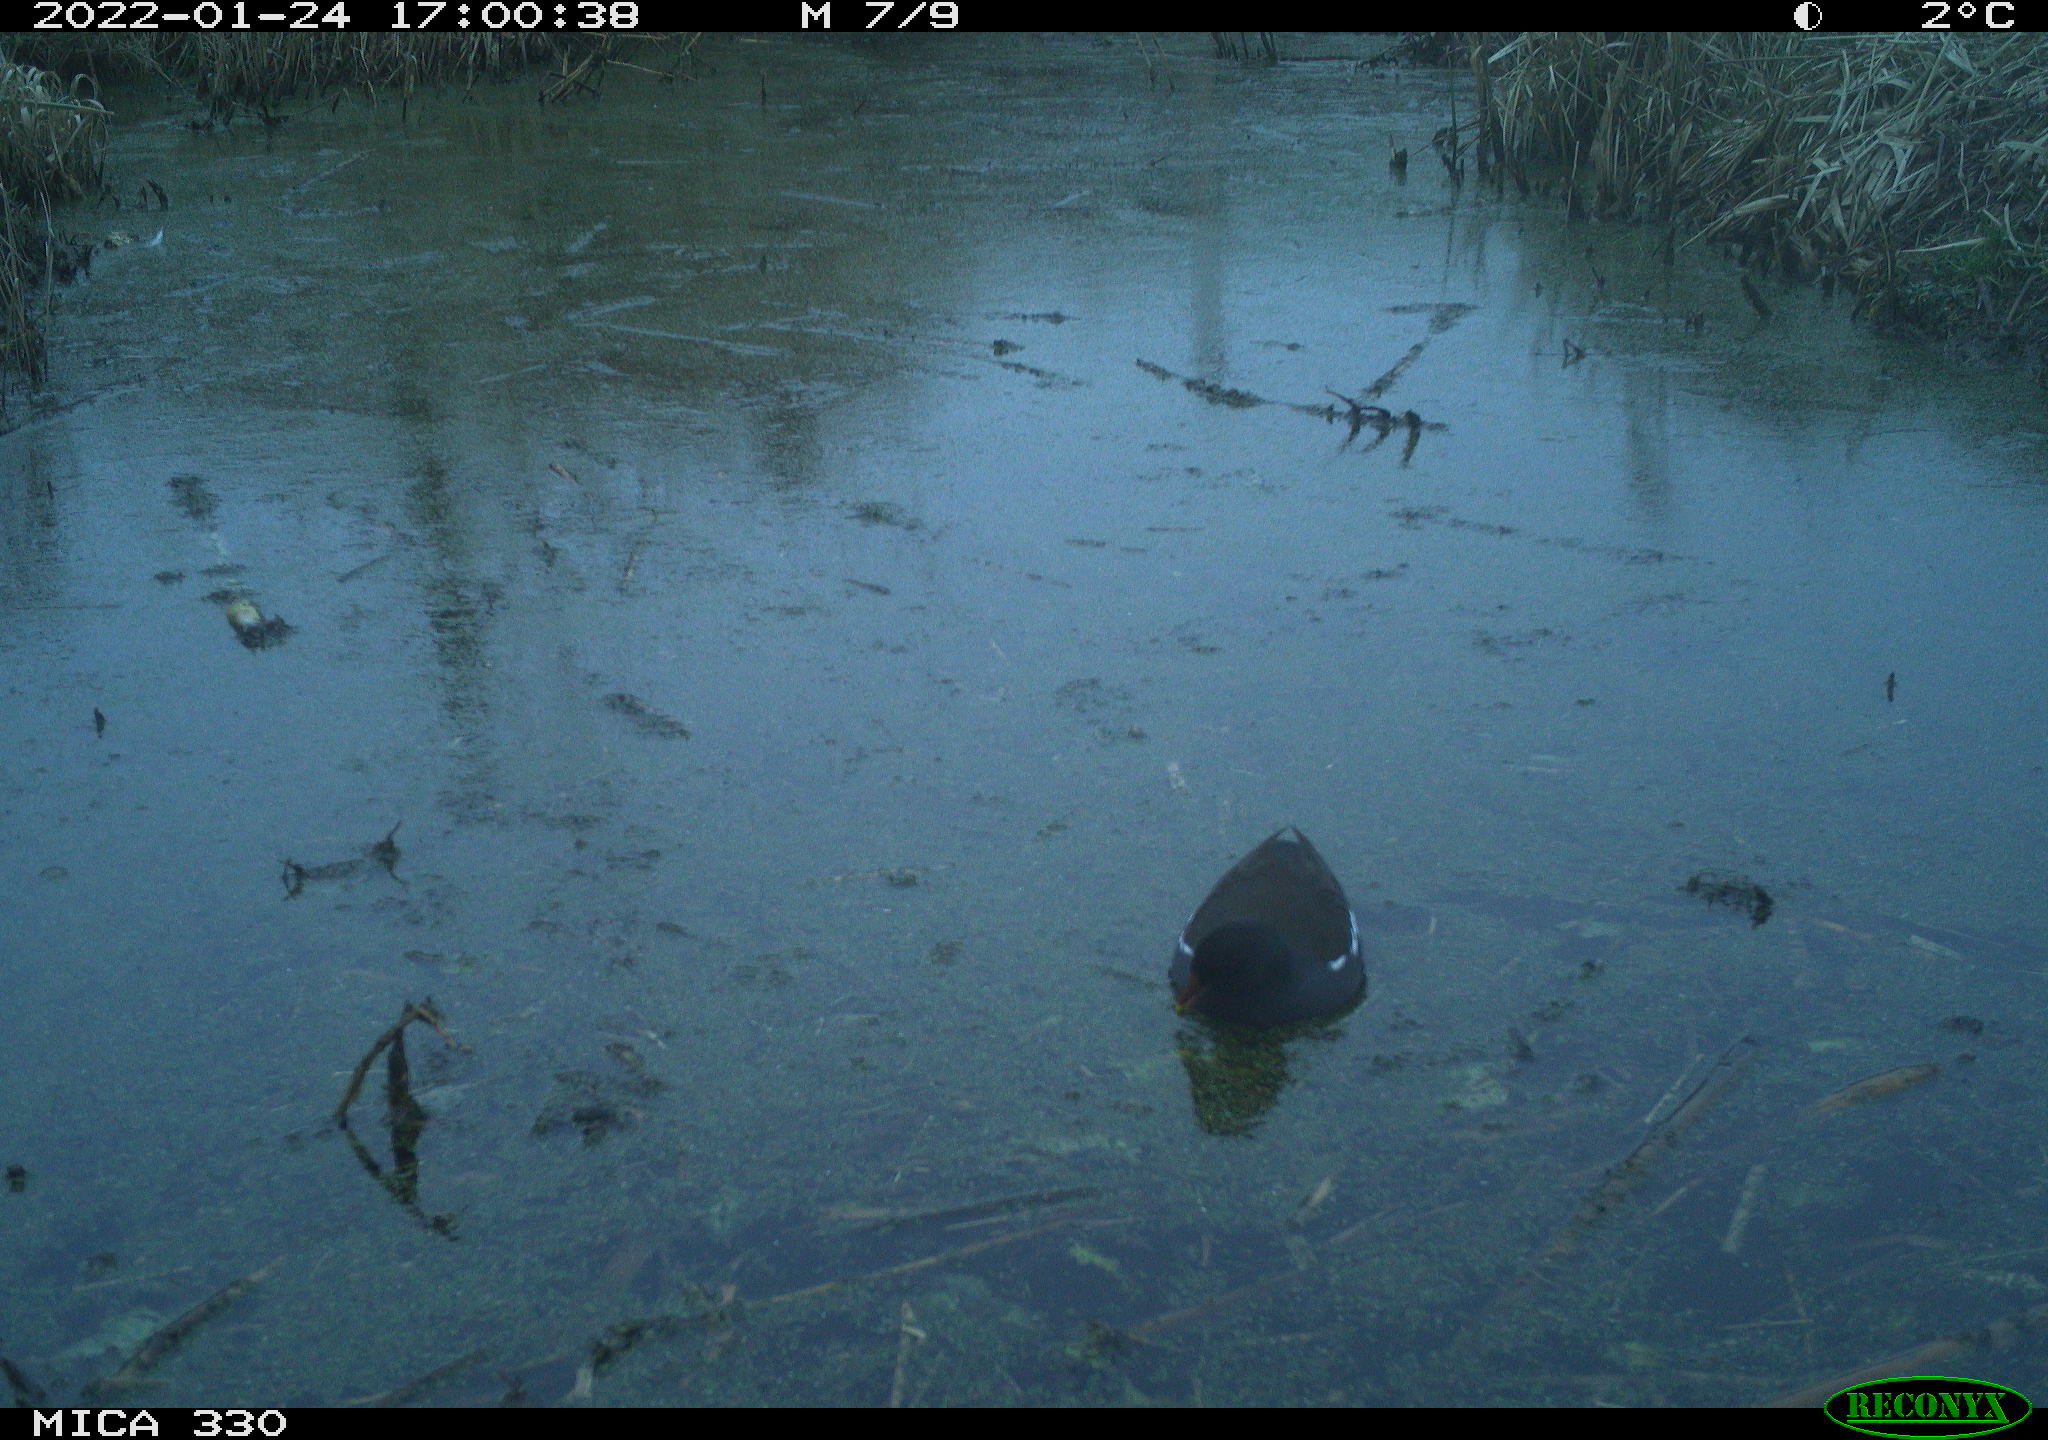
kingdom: Animalia
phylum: Chordata
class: Aves
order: Gruiformes
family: Rallidae
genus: Gallinula
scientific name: Gallinula chloropus
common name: Common moorhen
